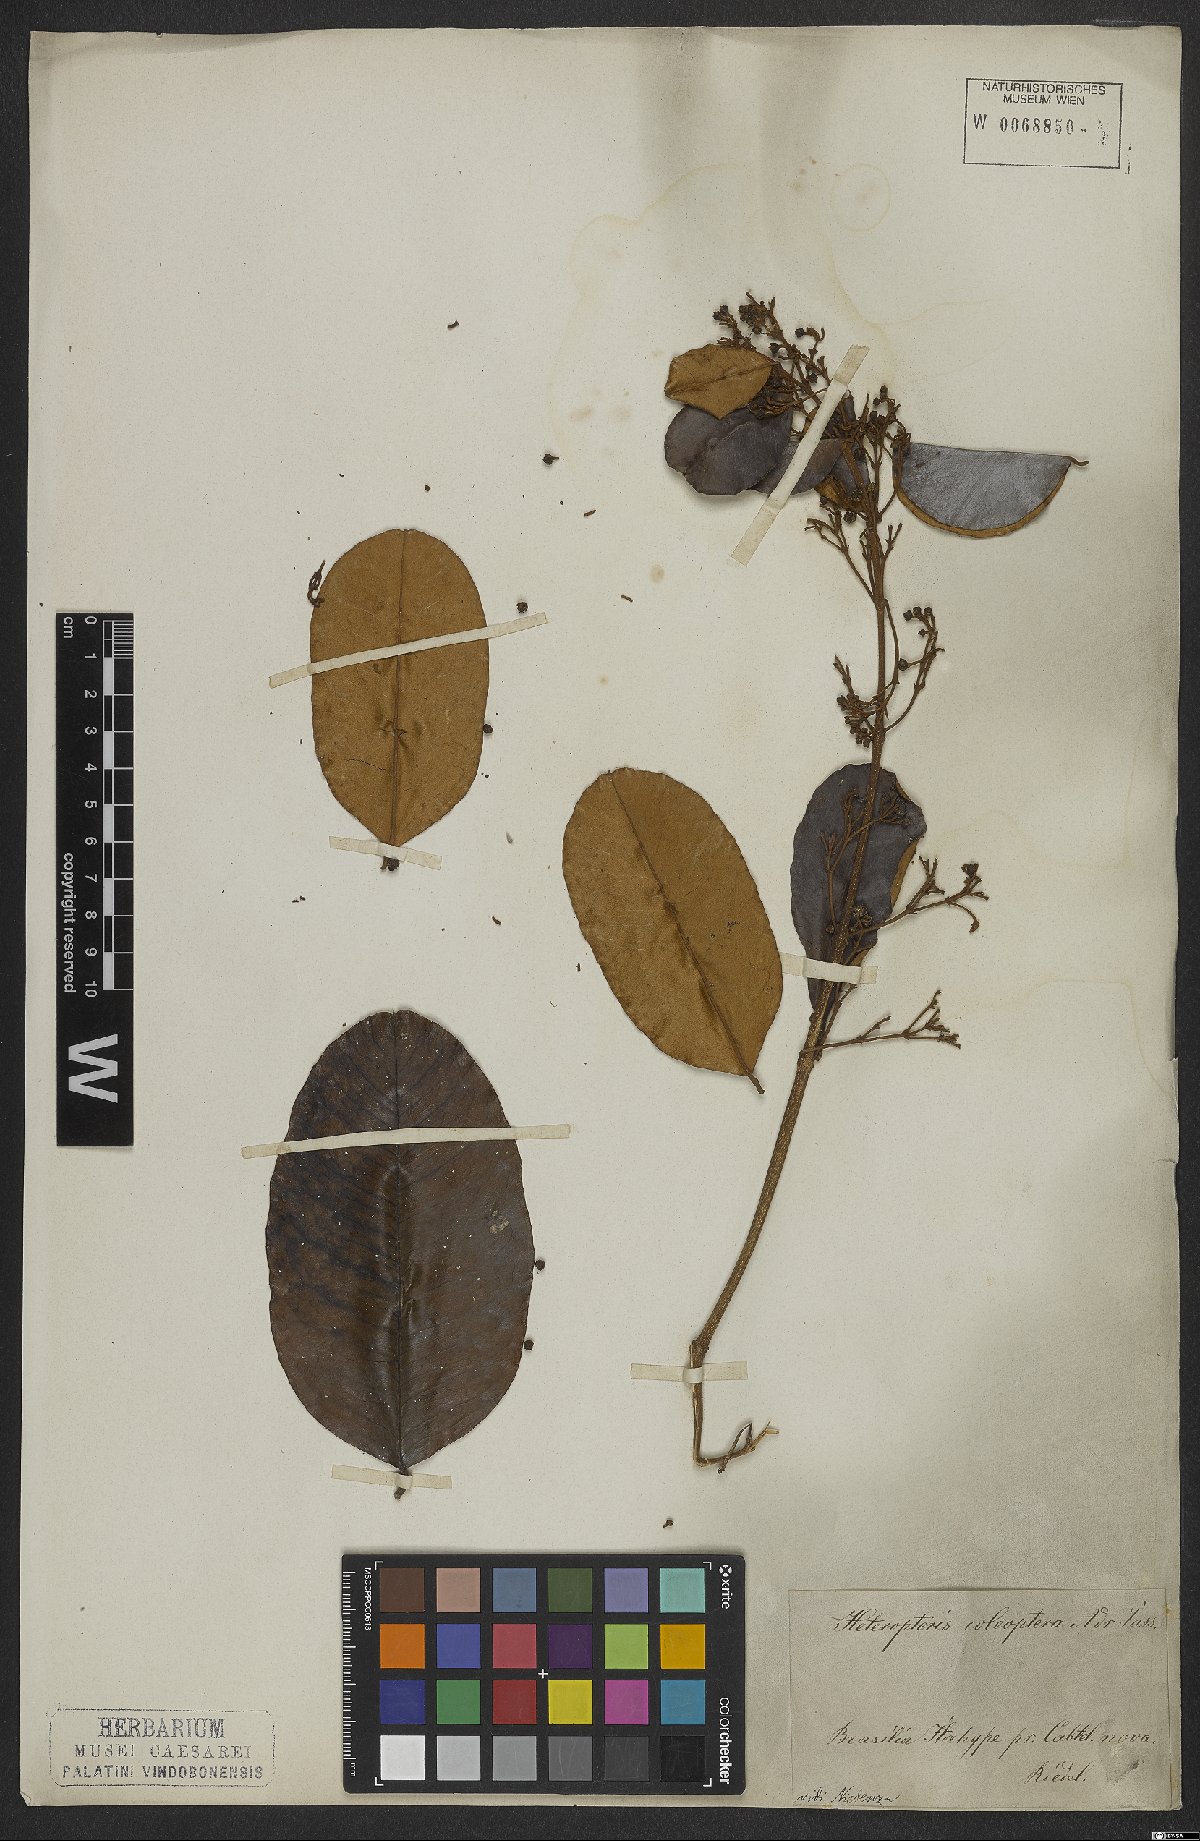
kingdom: Plantae
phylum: Tracheophyta
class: Magnoliopsida
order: Malpighiales
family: Malpighiaceae
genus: Heteropterys
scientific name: Heteropterys coleoptera
